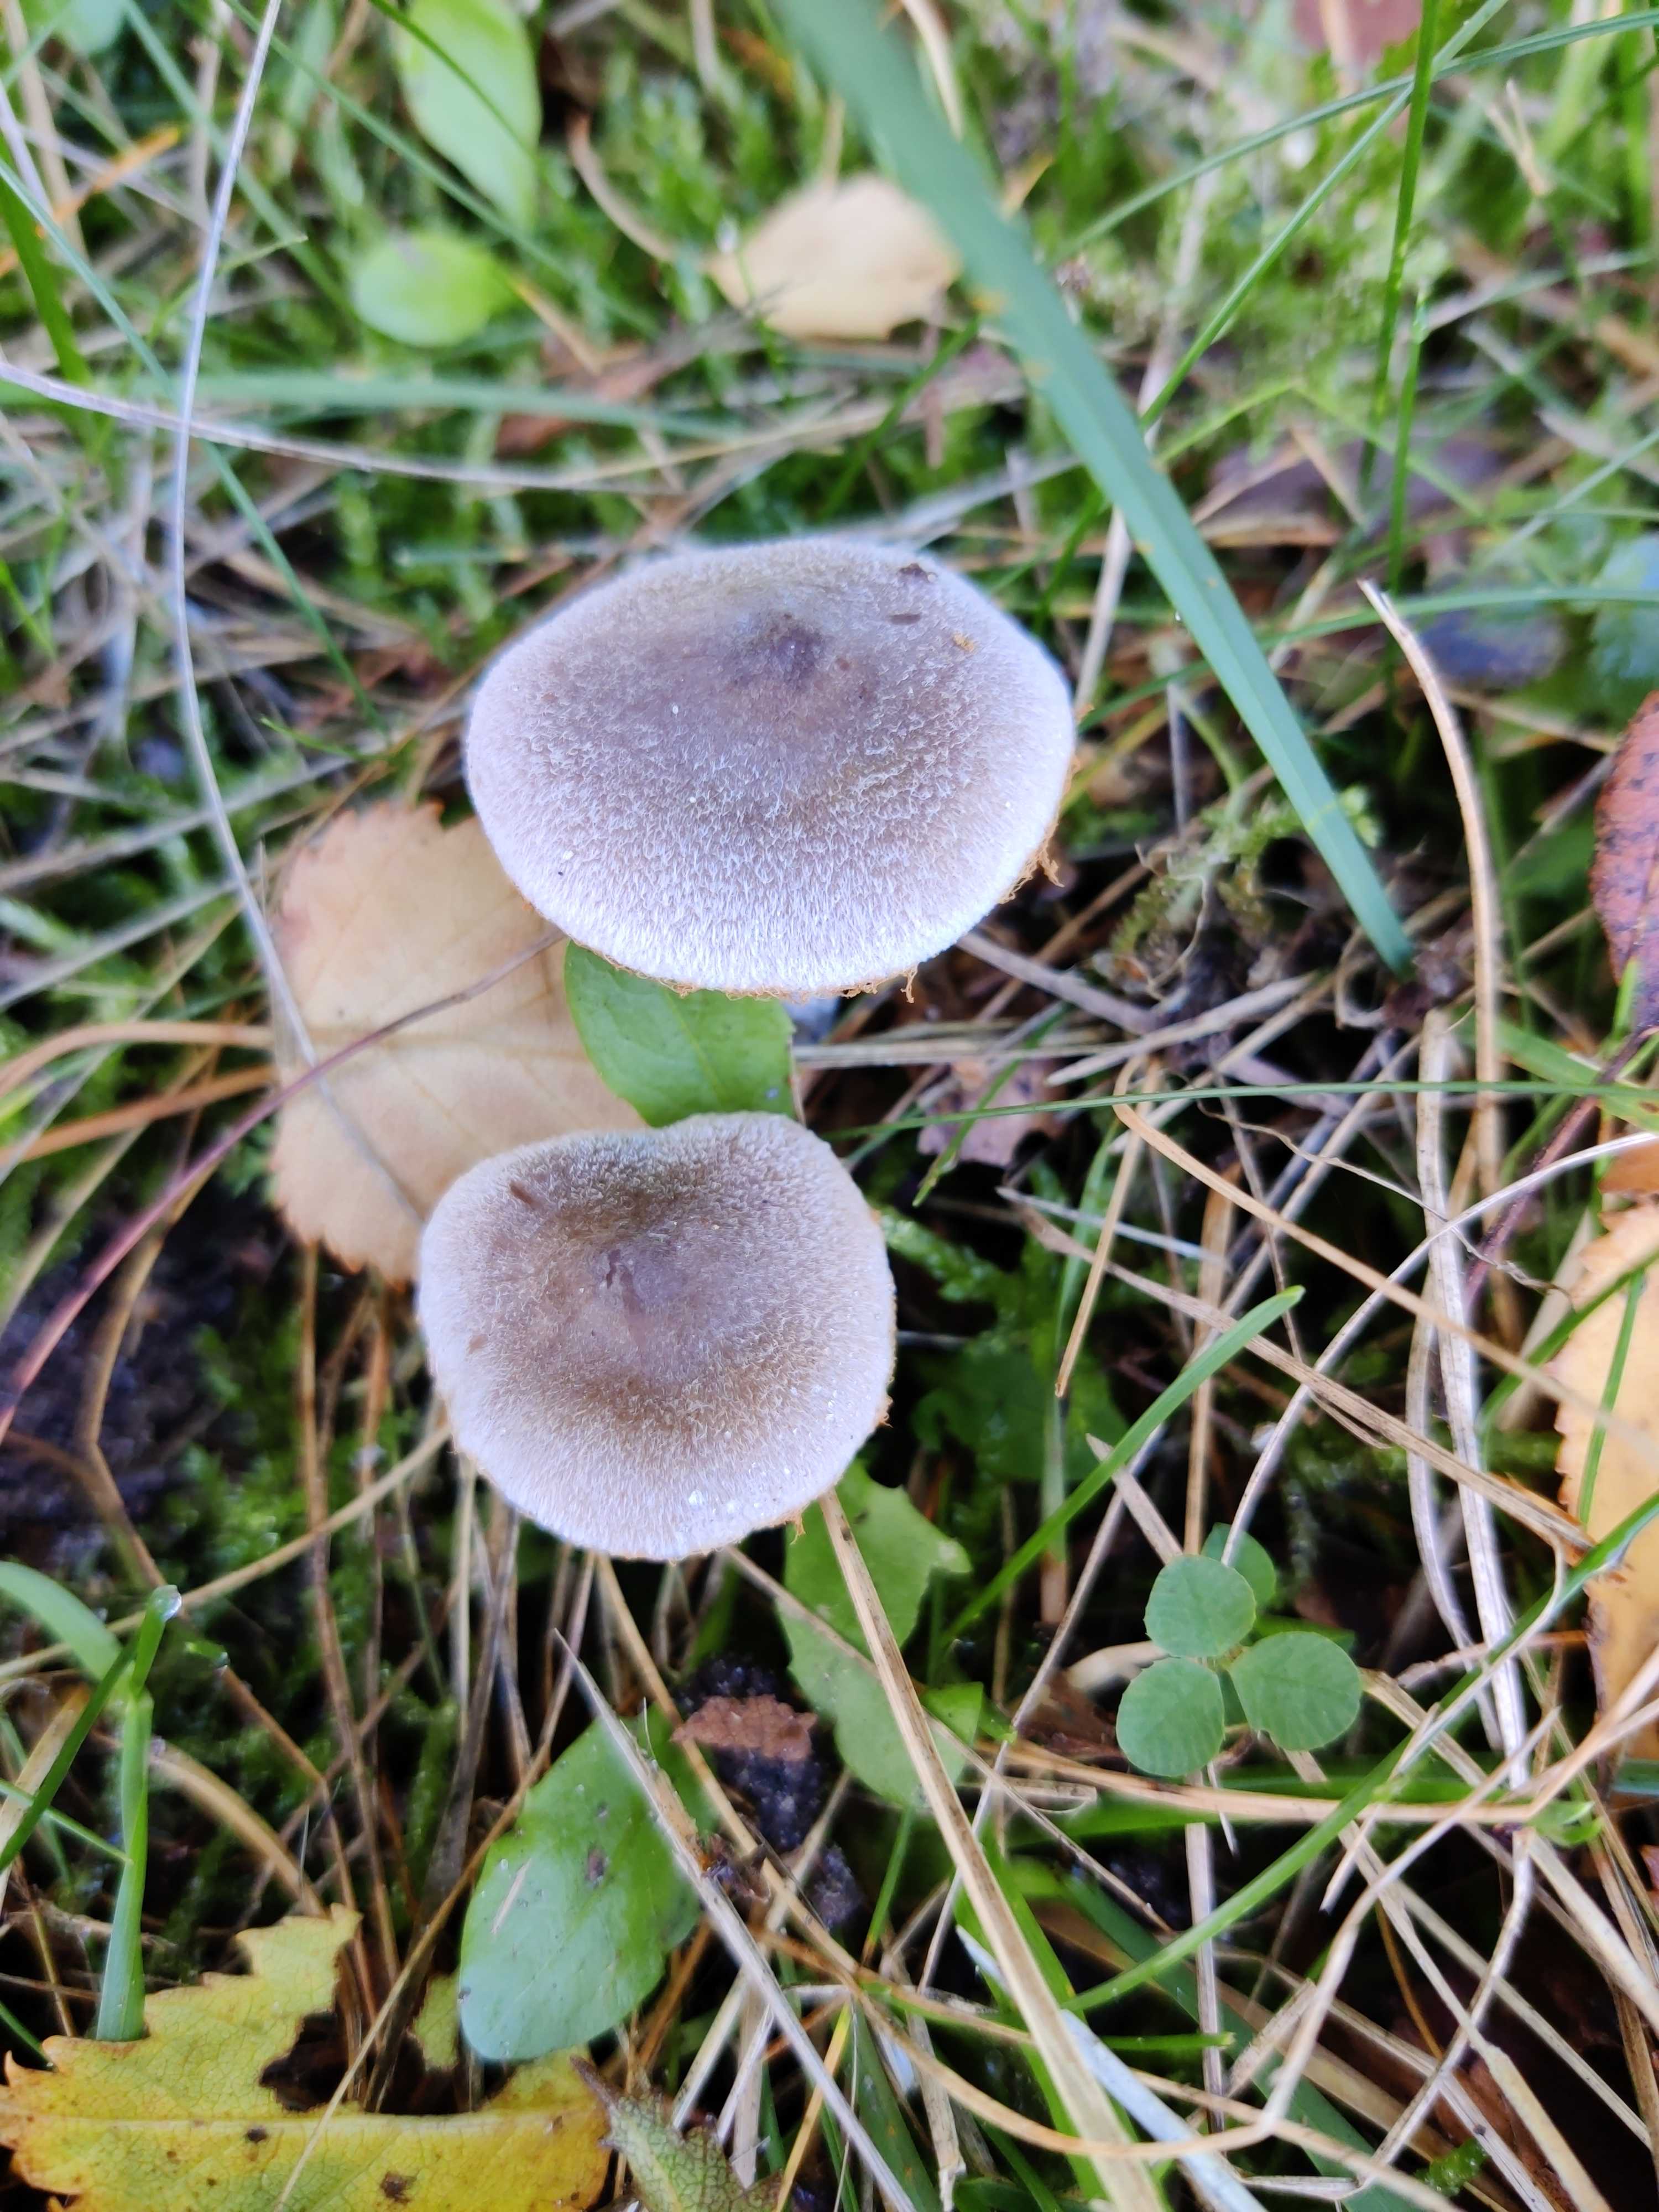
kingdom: Fungi
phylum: Basidiomycota
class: Agaricomycetes
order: Agaricales
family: Cortinariaceae
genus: Cortinarius
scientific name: Cortinarius hemitrichus
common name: hvidfnugget slørhat
